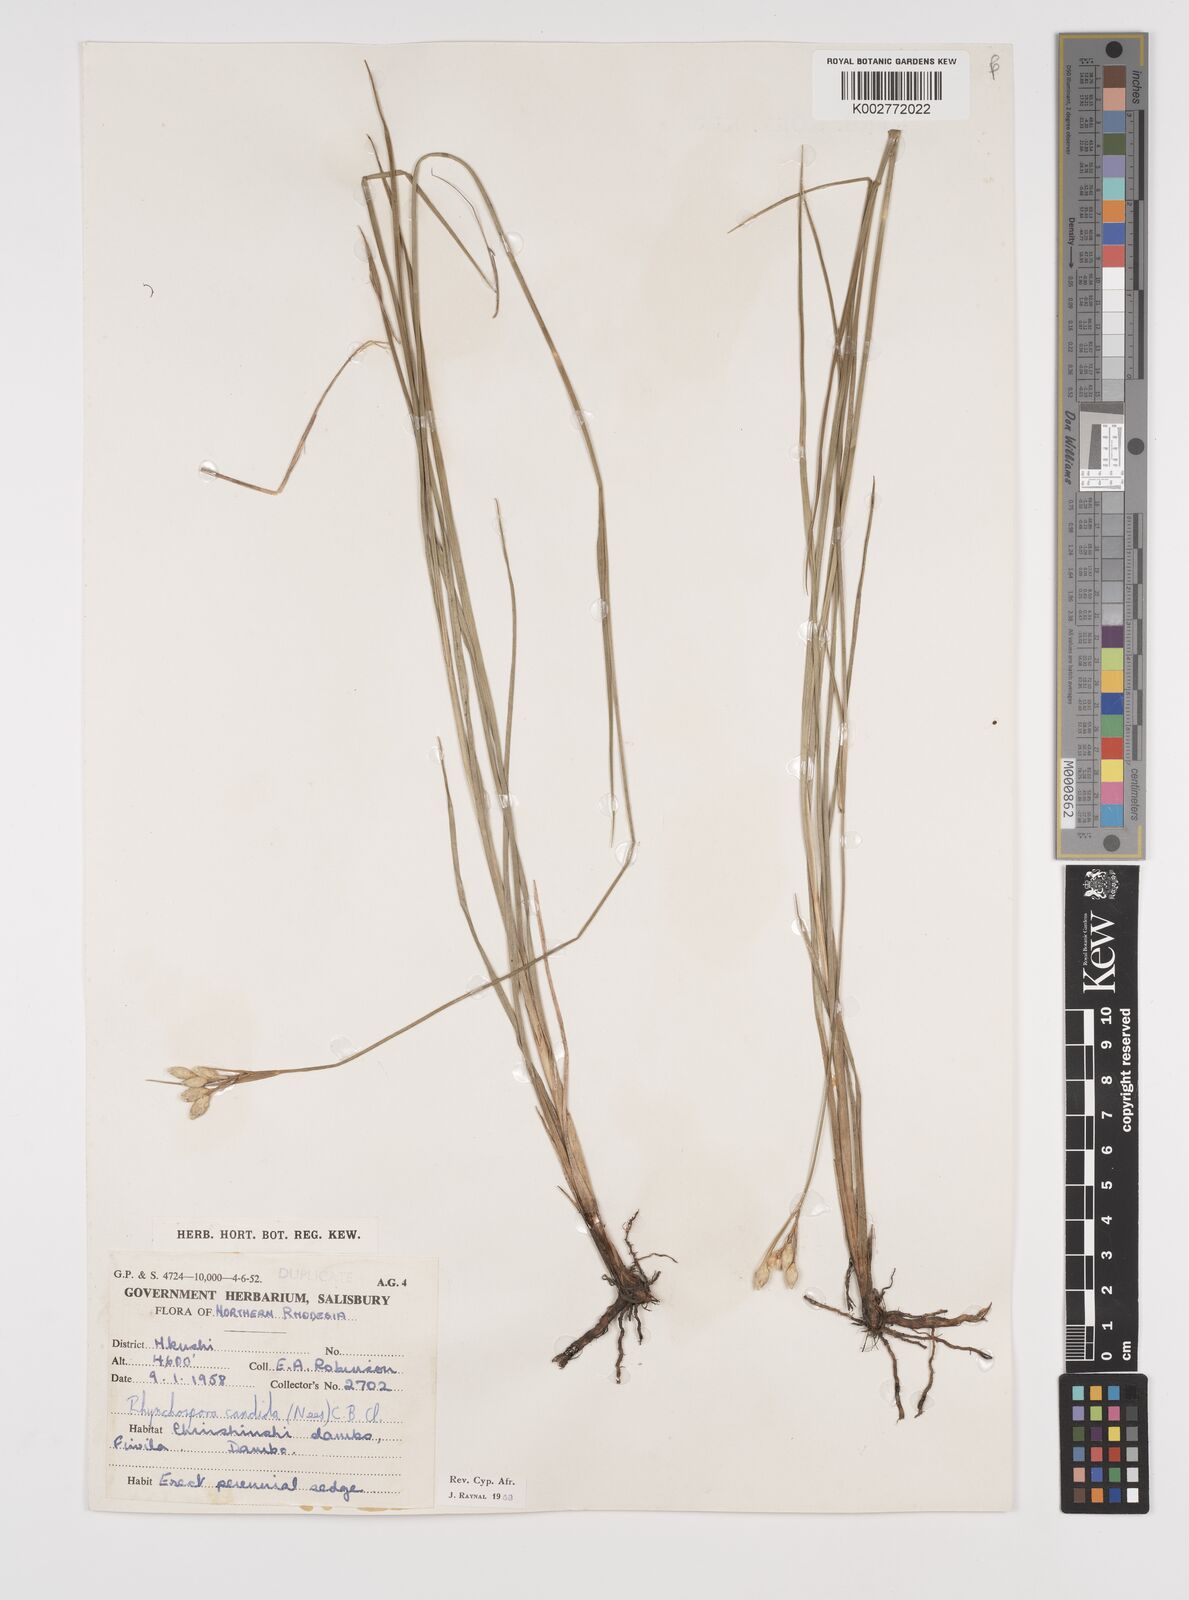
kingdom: Plantae
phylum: Tracheophyta
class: Liliopsida
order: Poales
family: Cyperaceae
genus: Rhynchospora
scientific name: Rhynchospora candida
